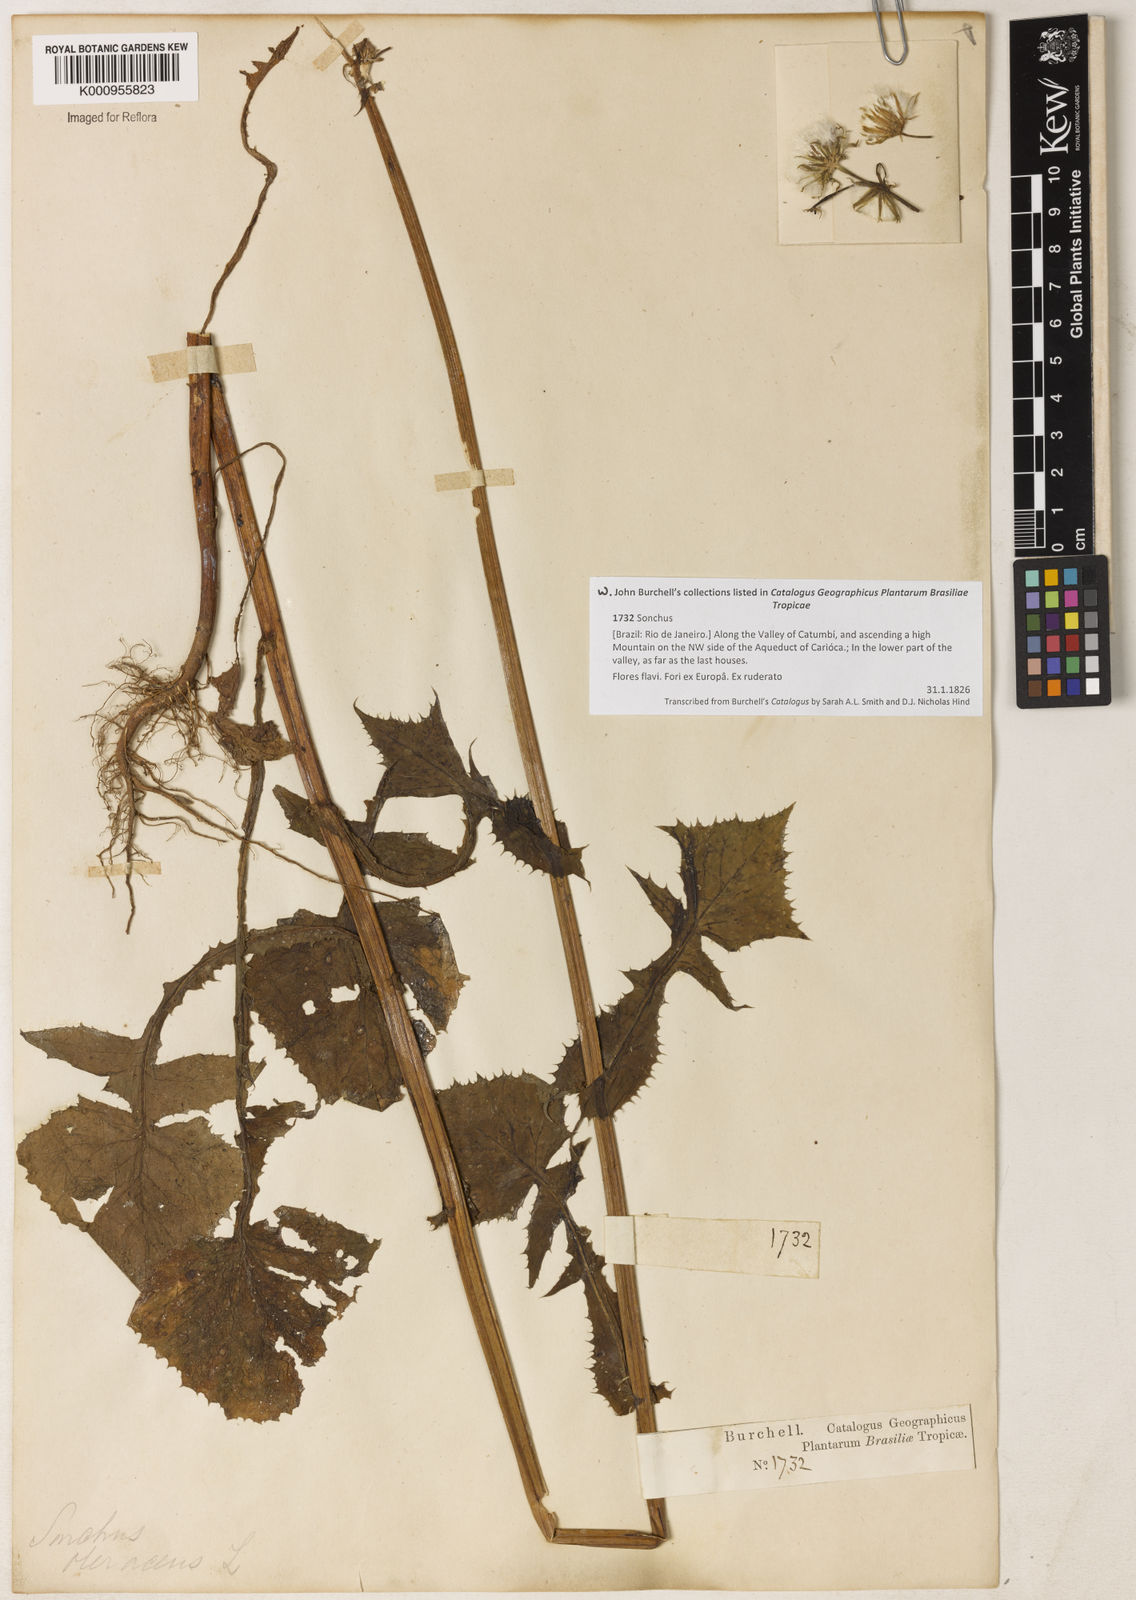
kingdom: Plantae
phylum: Tracheophyta
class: Magnoliopsida
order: Asterales
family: Asteraceae
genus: Sonchus
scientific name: Sonchus oleraceus
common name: Common sowthistle
